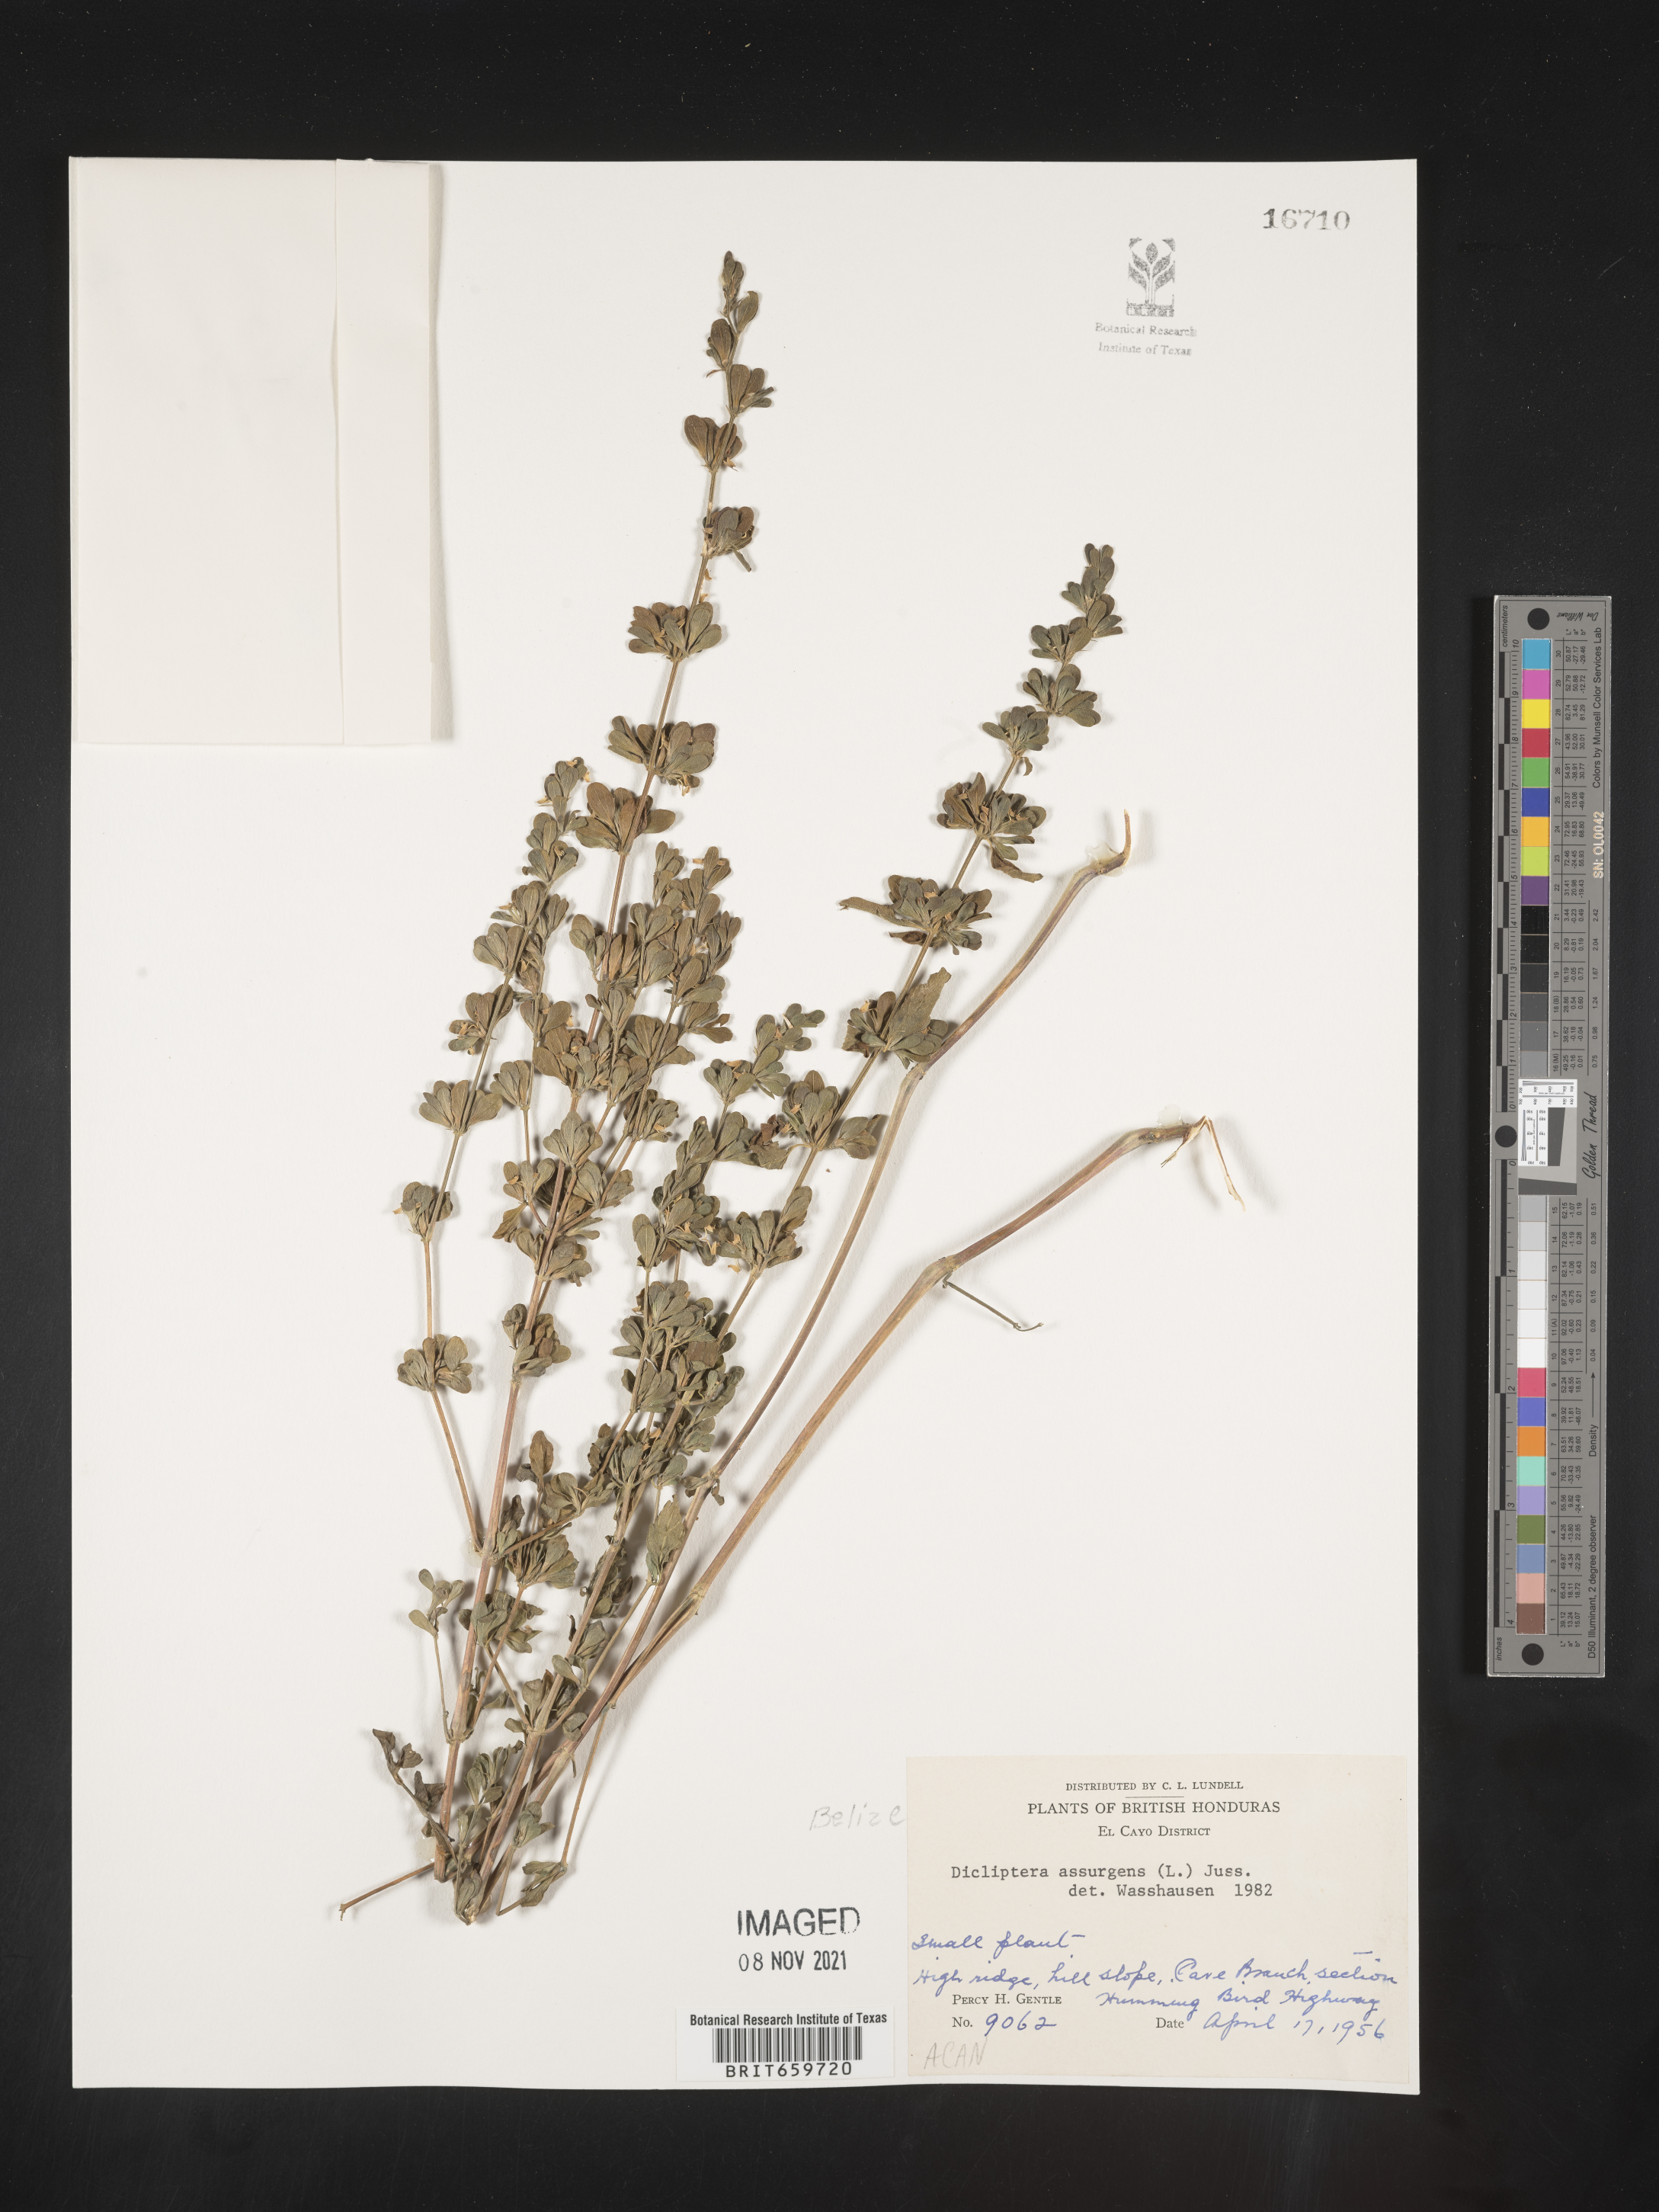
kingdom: Plantae
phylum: Tracheophyta
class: Magnoliopsida
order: Lamiales
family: Acanthaceae
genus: Dicliptera
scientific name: Dicliptera
